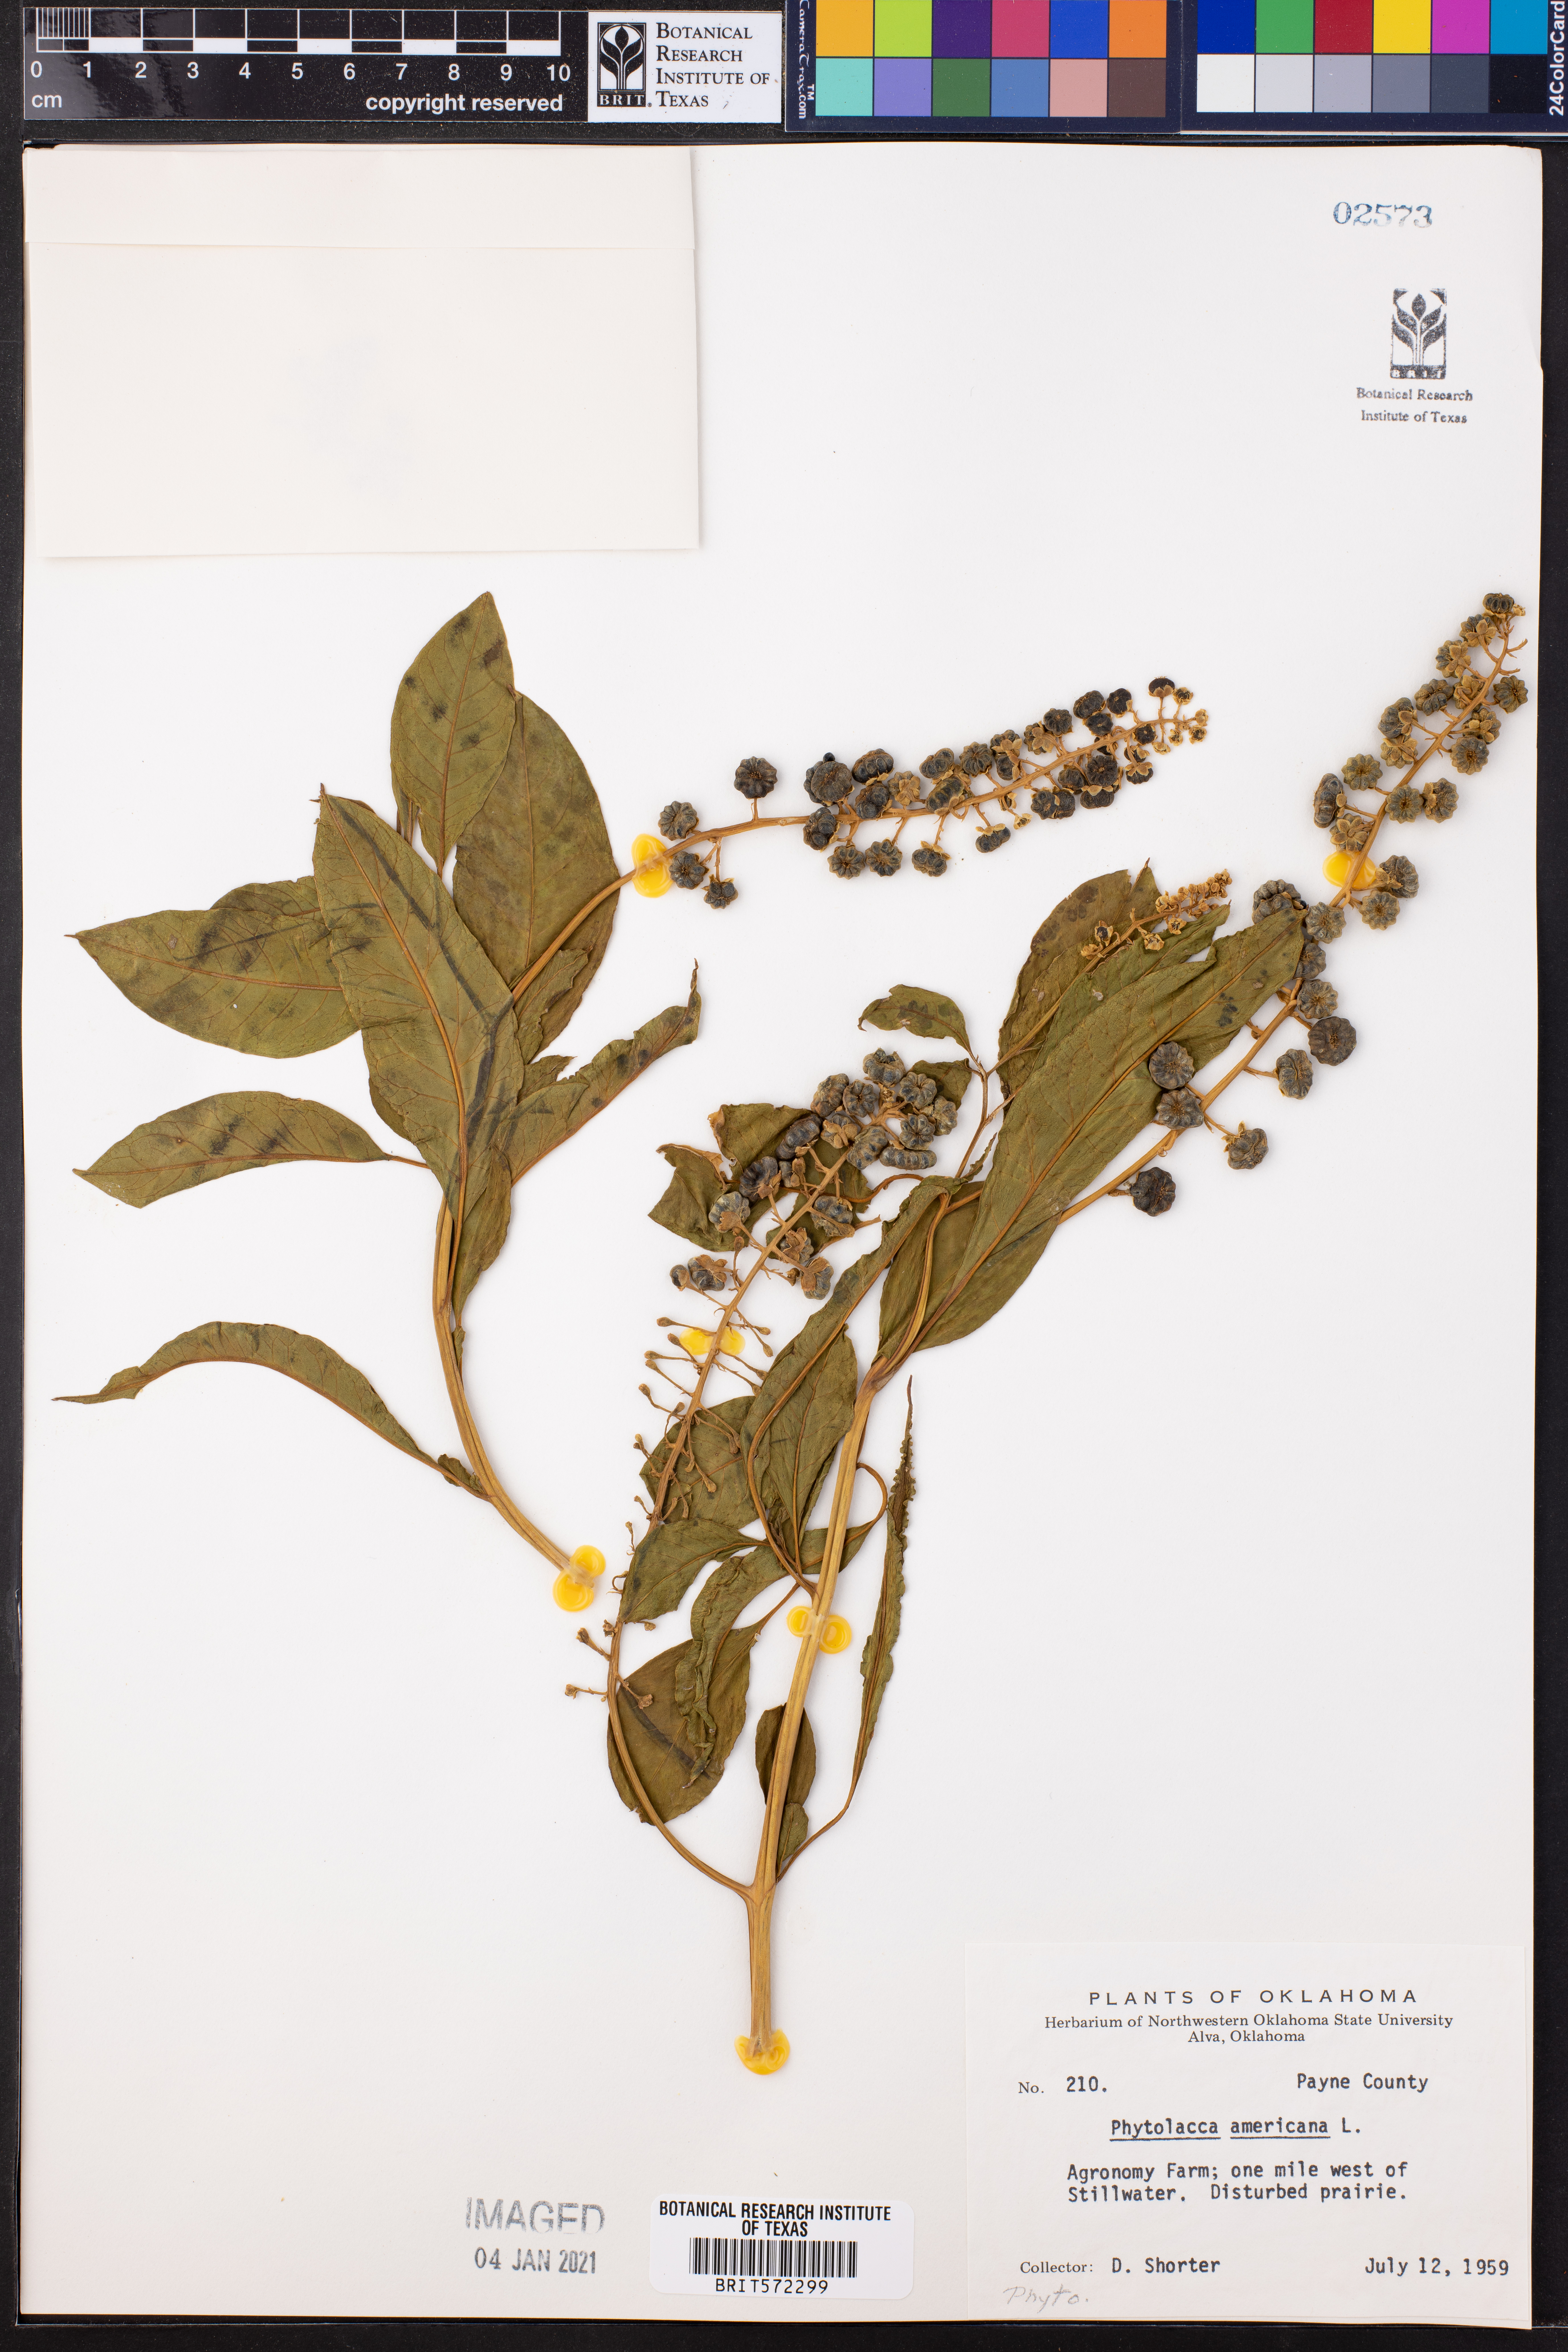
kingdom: Plantae
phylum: Tracheophyta
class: Magnoliopsida
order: Caryophyllales
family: Phytolaccaceae
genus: Phytolacca
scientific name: Phytolacca americana
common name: American pokeweed
